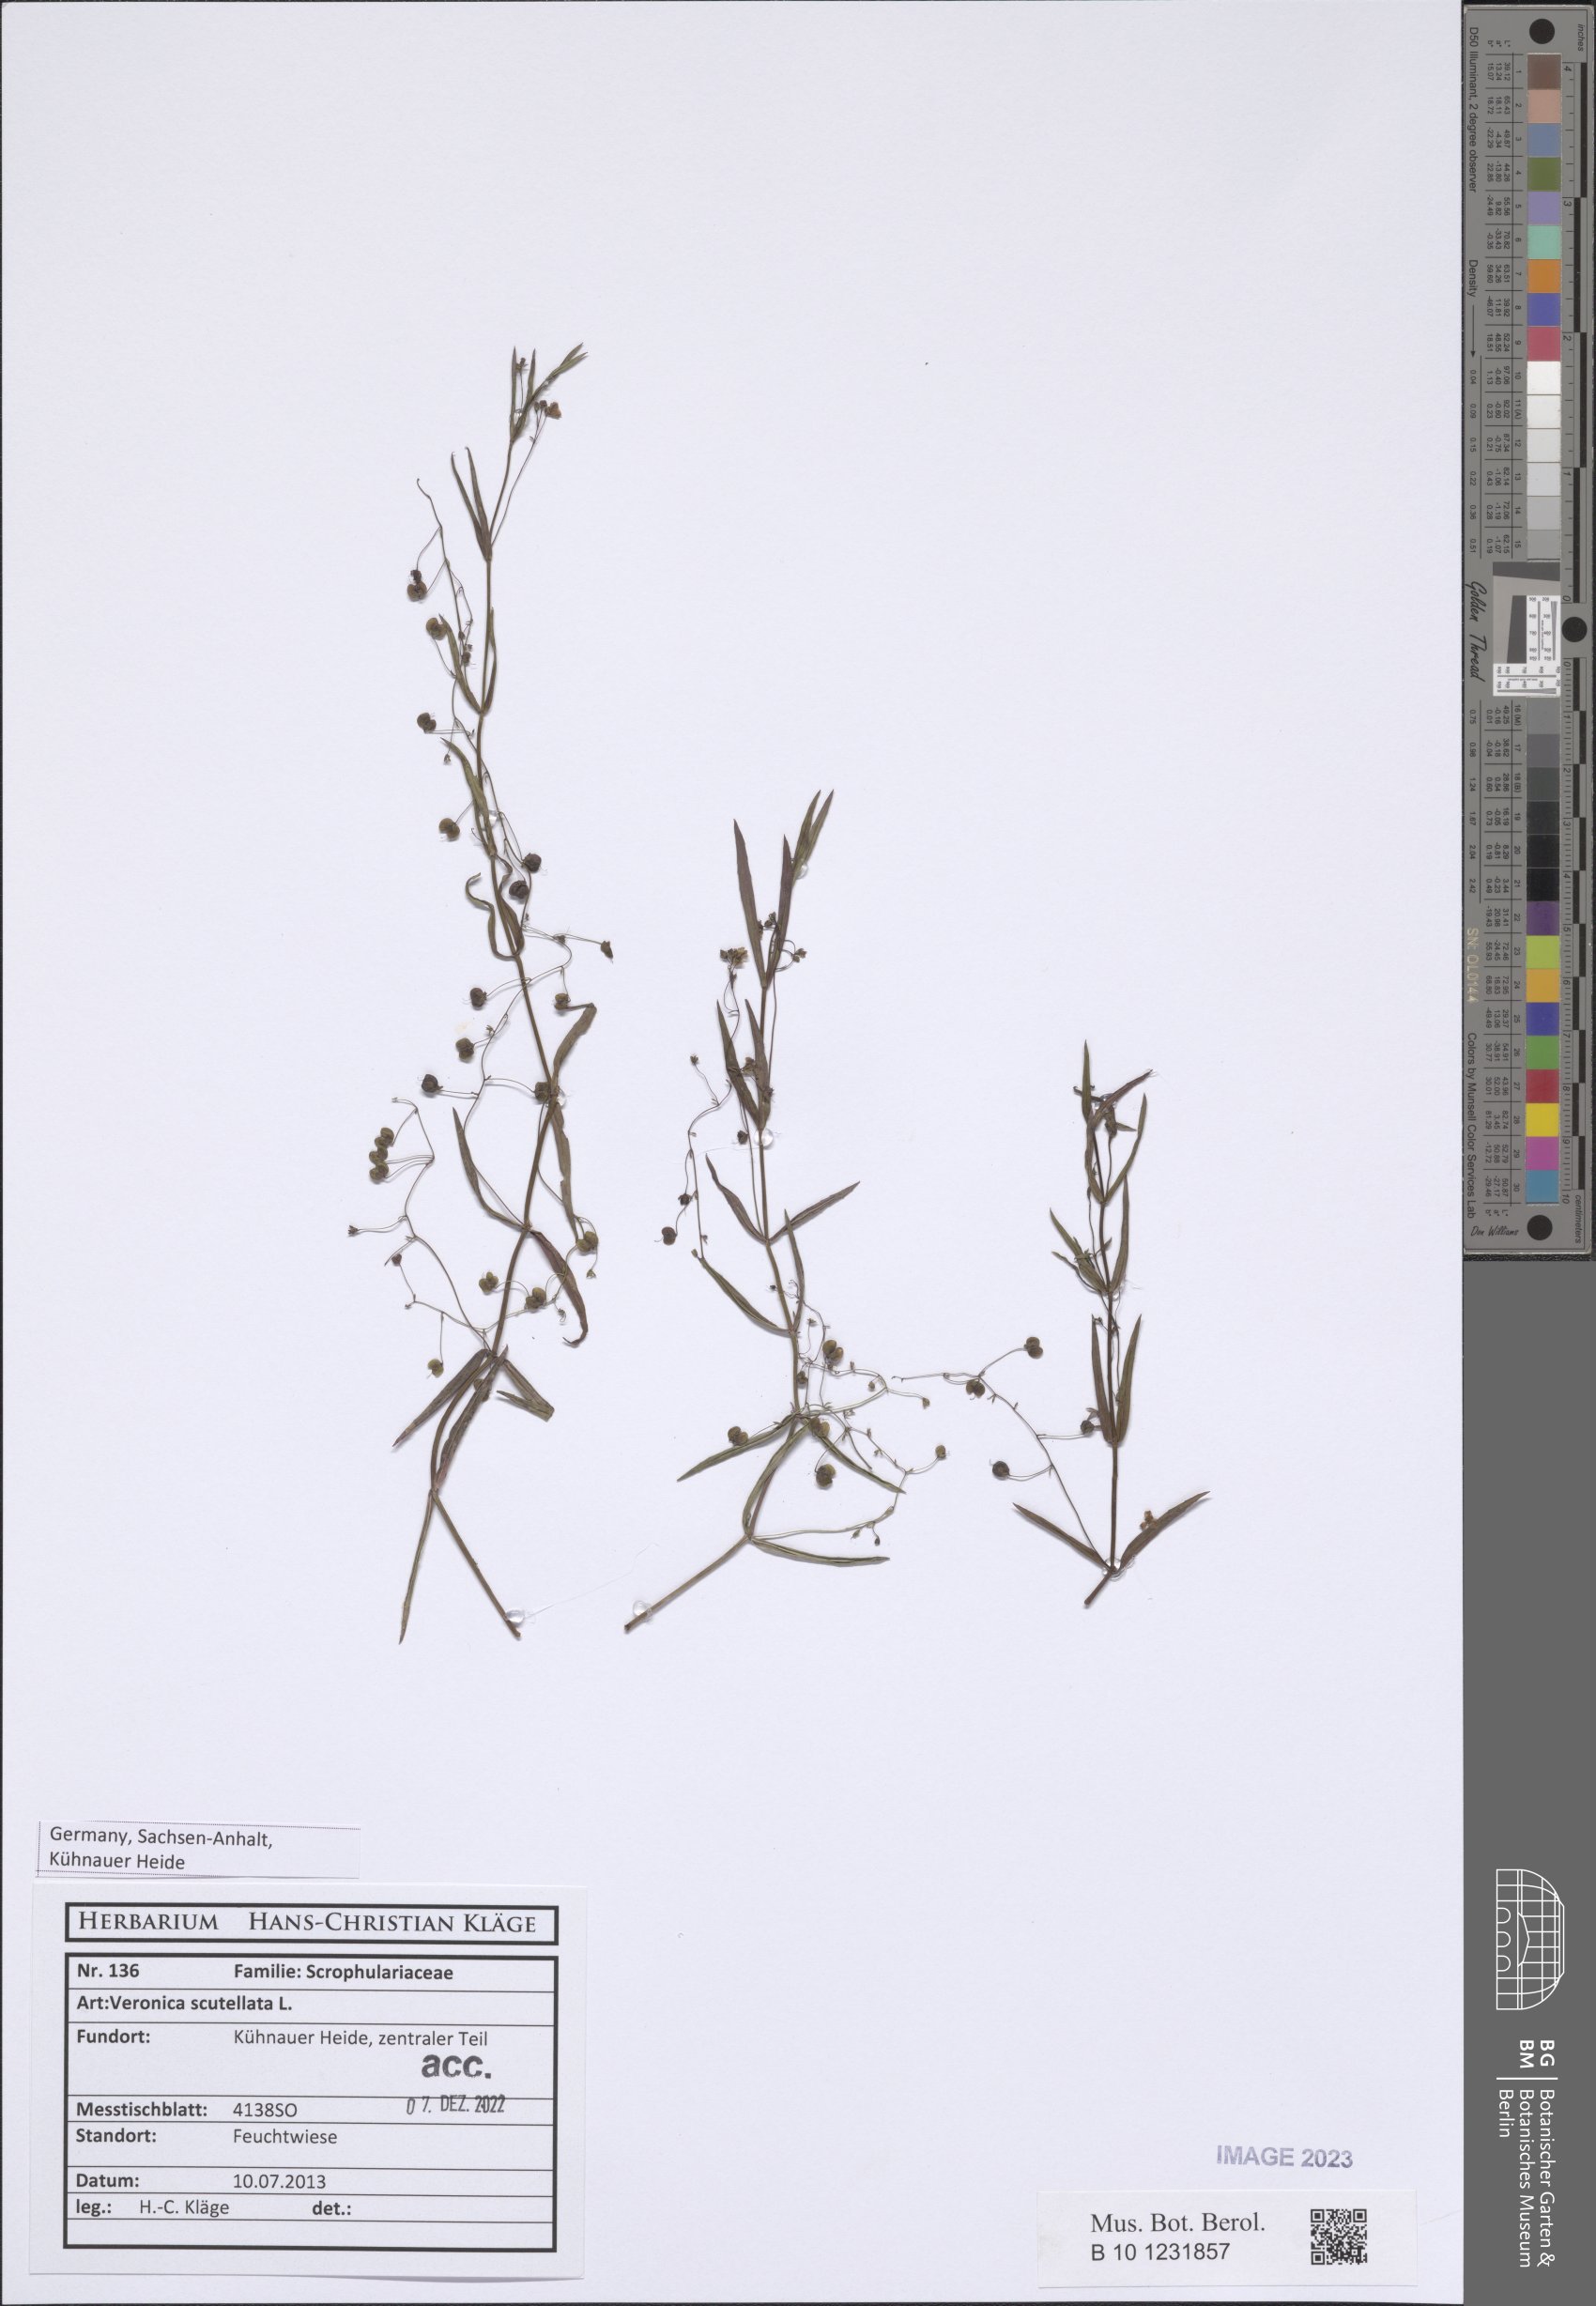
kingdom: Plantae
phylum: Tracheophyta
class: Magnoliopsida
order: Lamiales
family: Plantaginaceae
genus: Veronica
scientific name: Veronica scutellata
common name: Marsh speedwell
